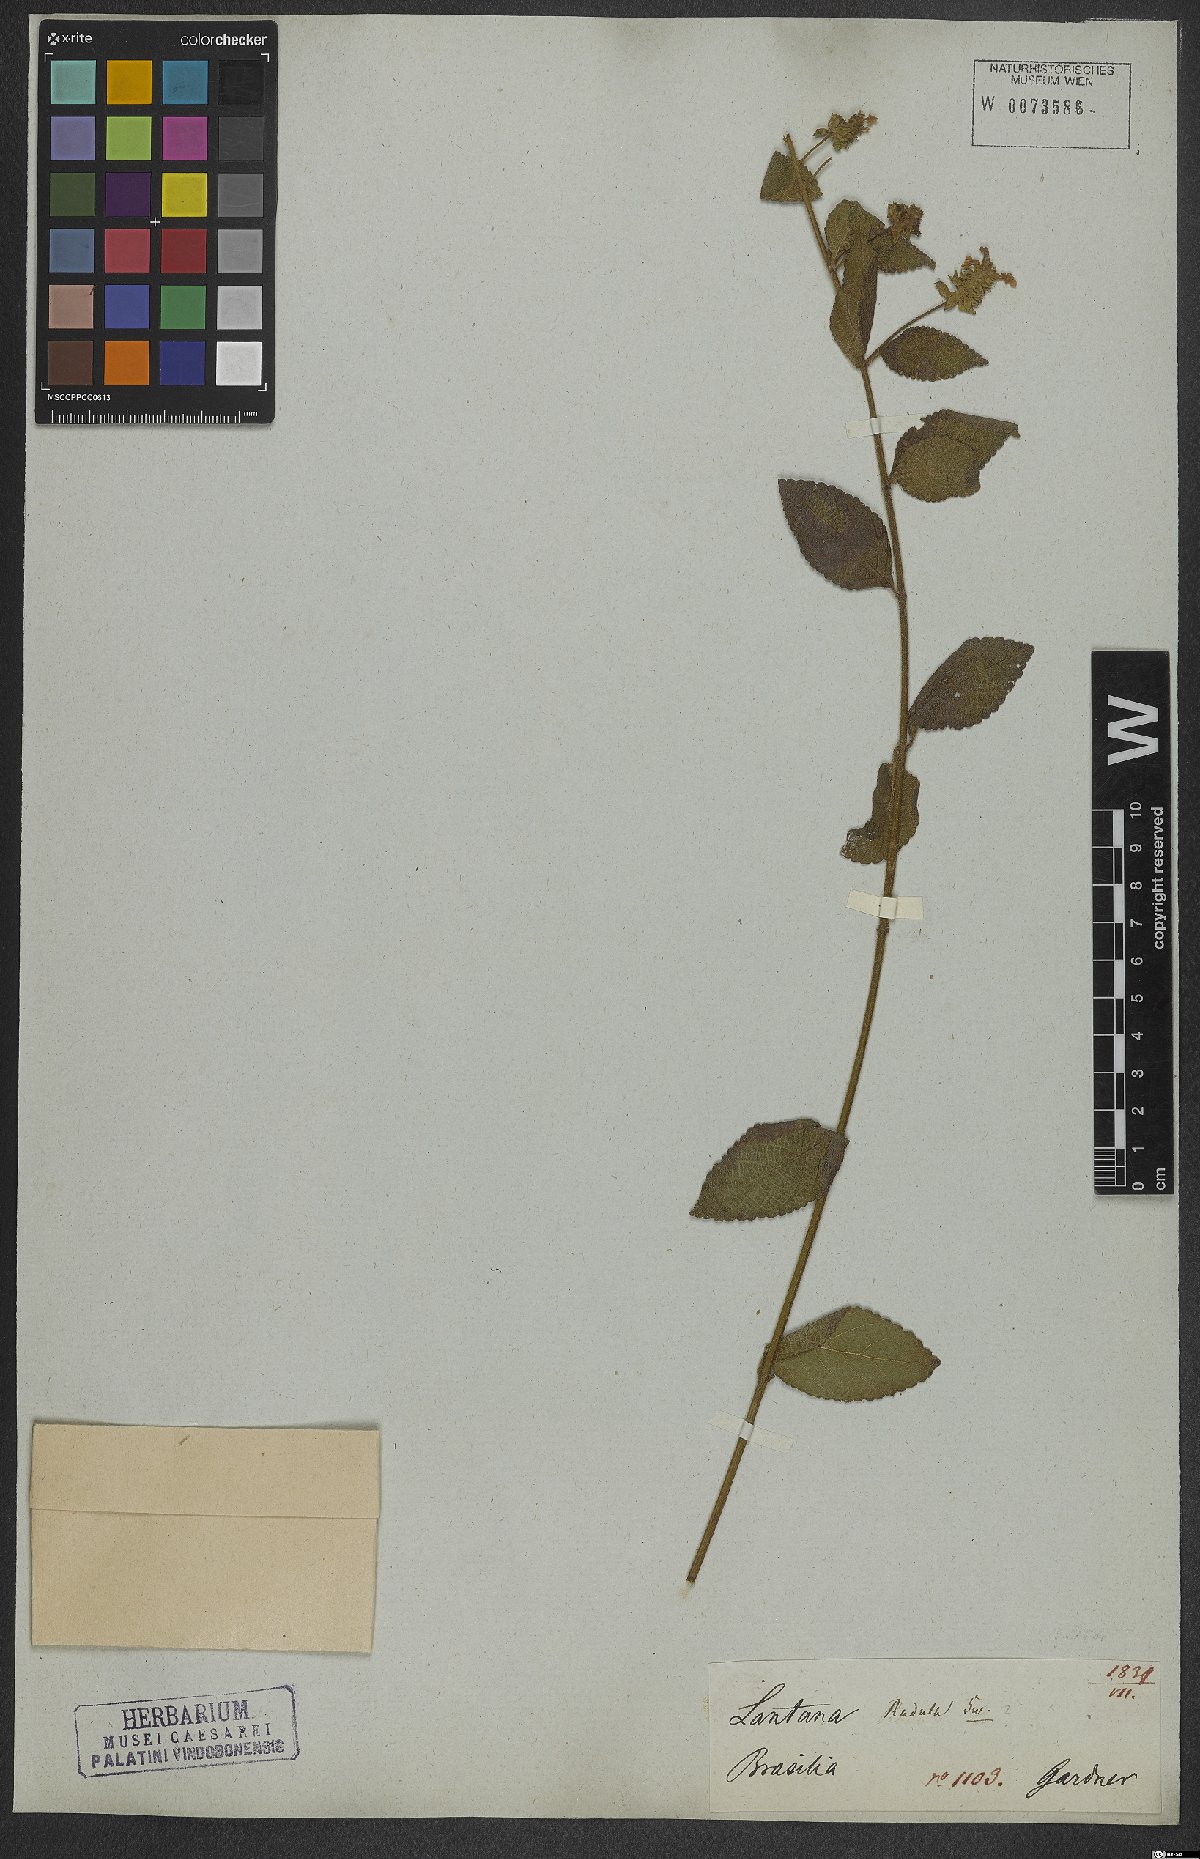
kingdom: Plantae
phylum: Tracheophyta
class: Magnoliopsida
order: Lamiales
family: Verbenaceae
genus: Lantana
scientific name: Lantana radula
